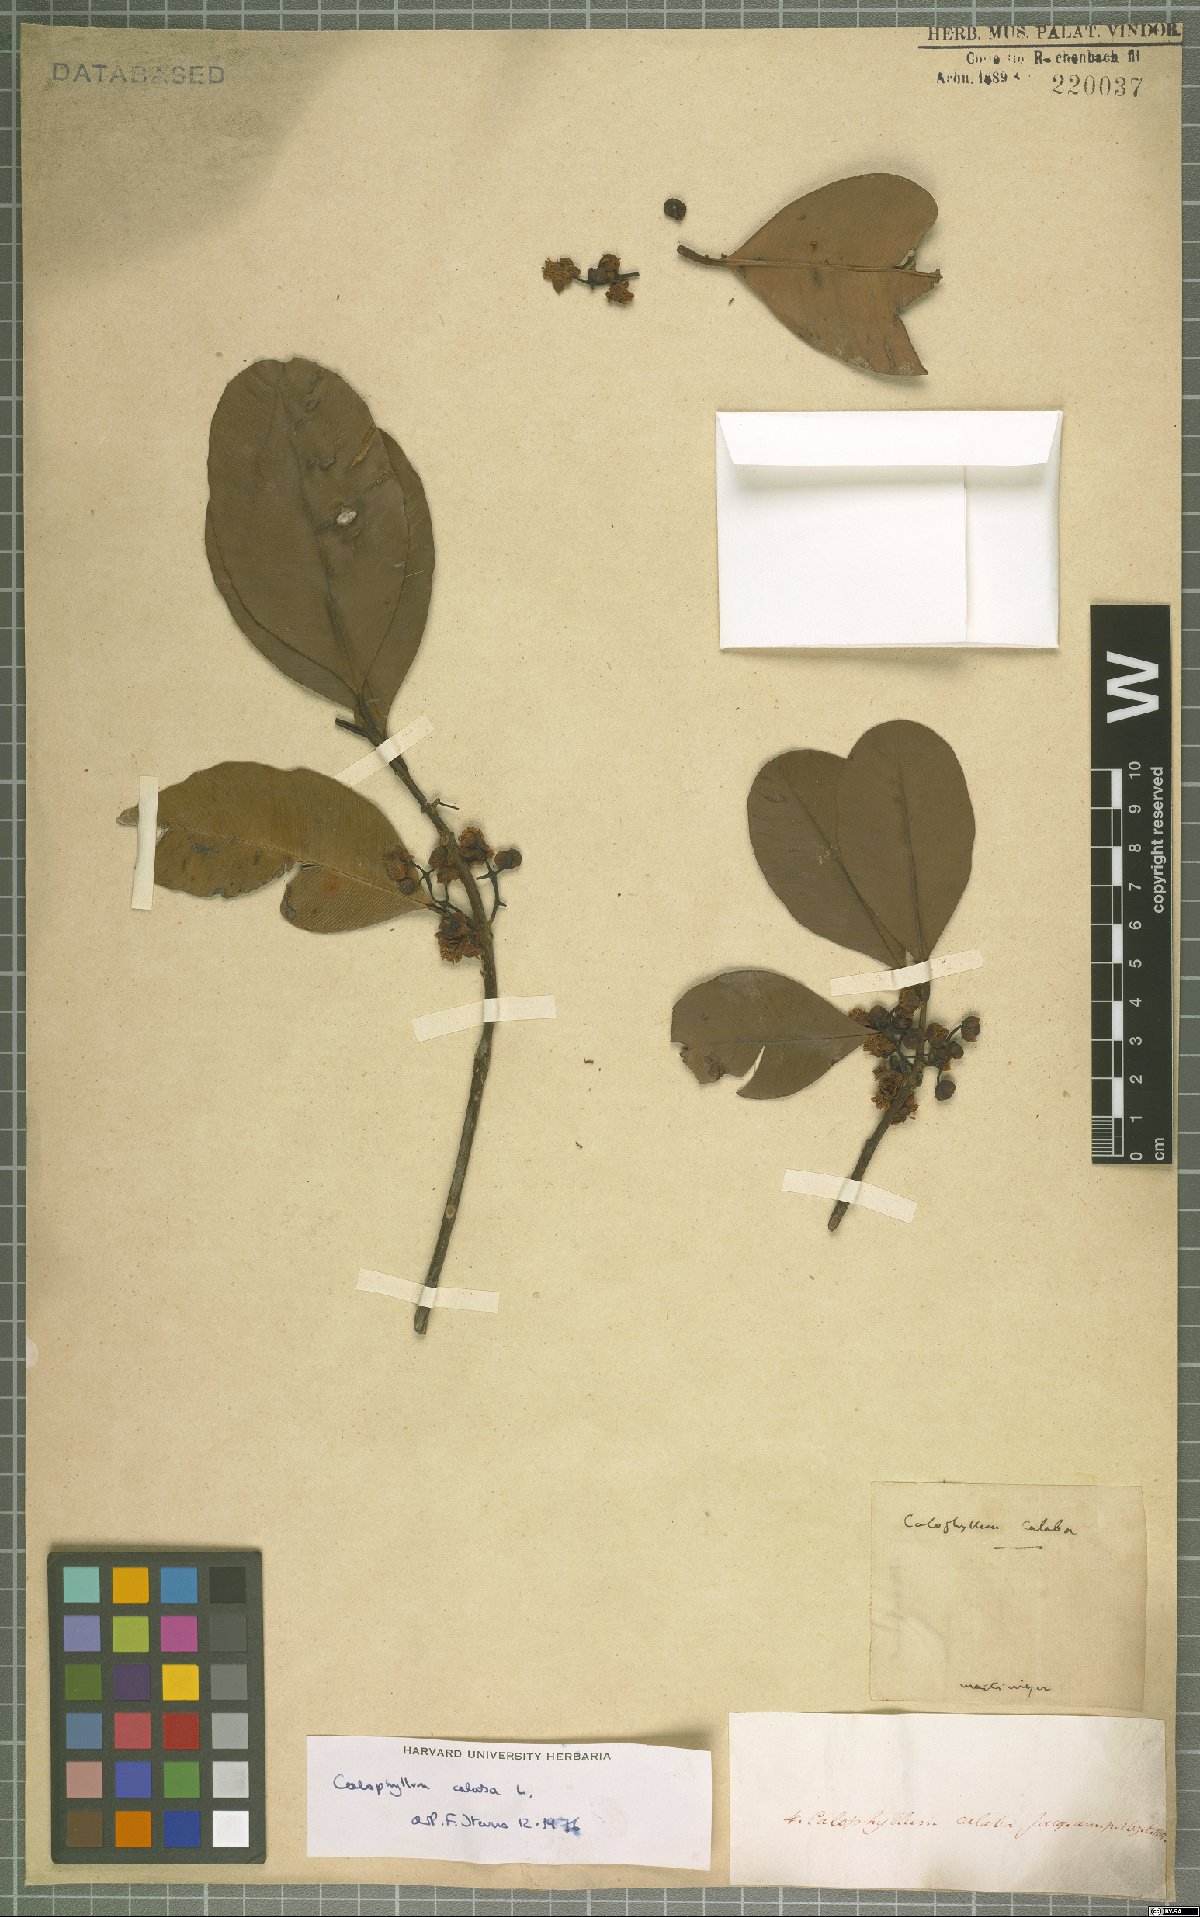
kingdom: Plantae
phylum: Tracheophyta
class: Magnoliopsida
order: Malpighiales
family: Calophyllaceae
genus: Calophyllum
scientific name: Calophyllum calaba
